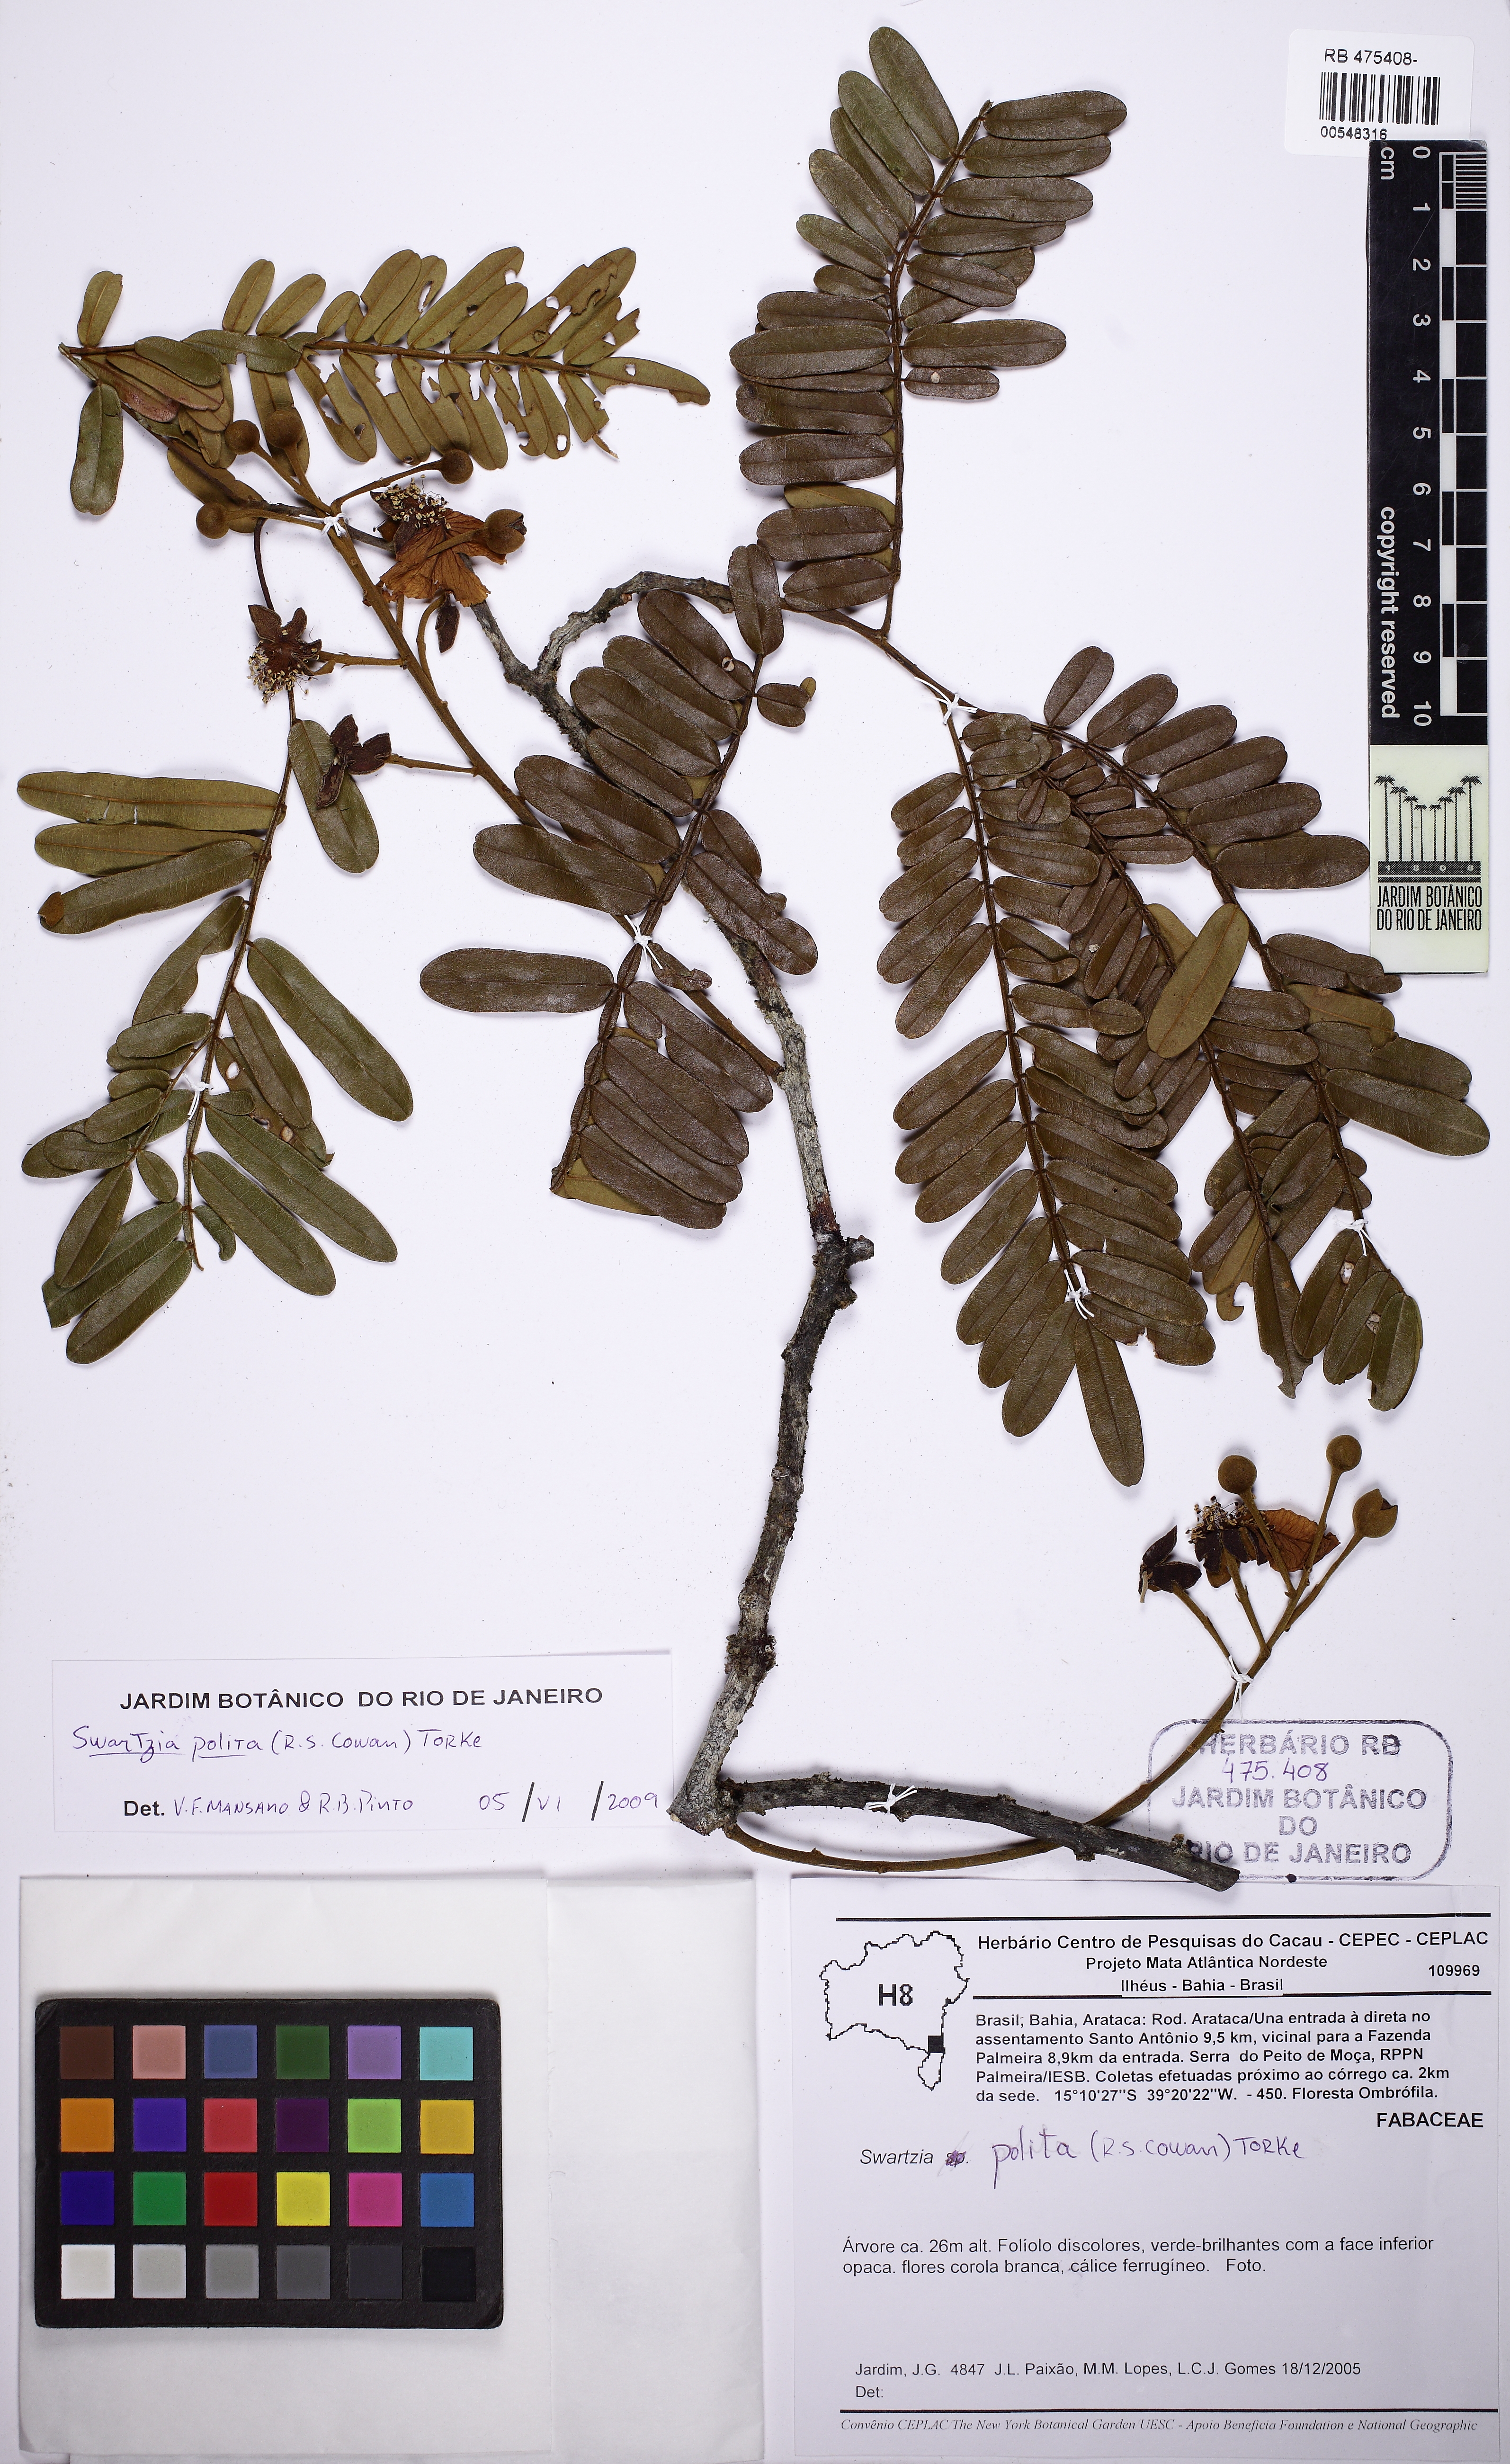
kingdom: Plantae
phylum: Tracheophyta
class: Magnoliopsida
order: Fabales
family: Fabaceae
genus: Swartzia
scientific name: Swartzia
